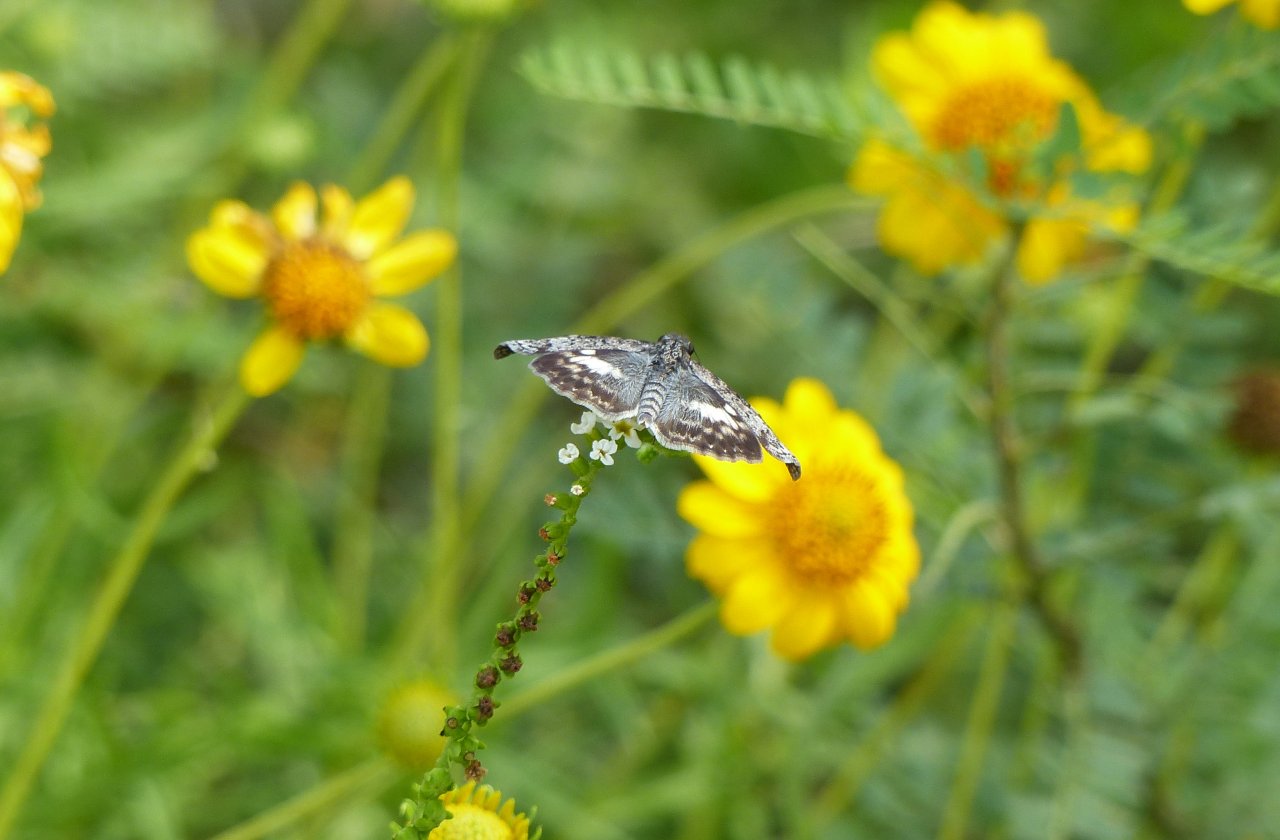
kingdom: Animalia
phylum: Arthropoda
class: Insecta
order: Lepidoptera
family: Hesperiidae
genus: Chiomara
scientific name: Chiomara asychis
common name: White-patched Skipper
